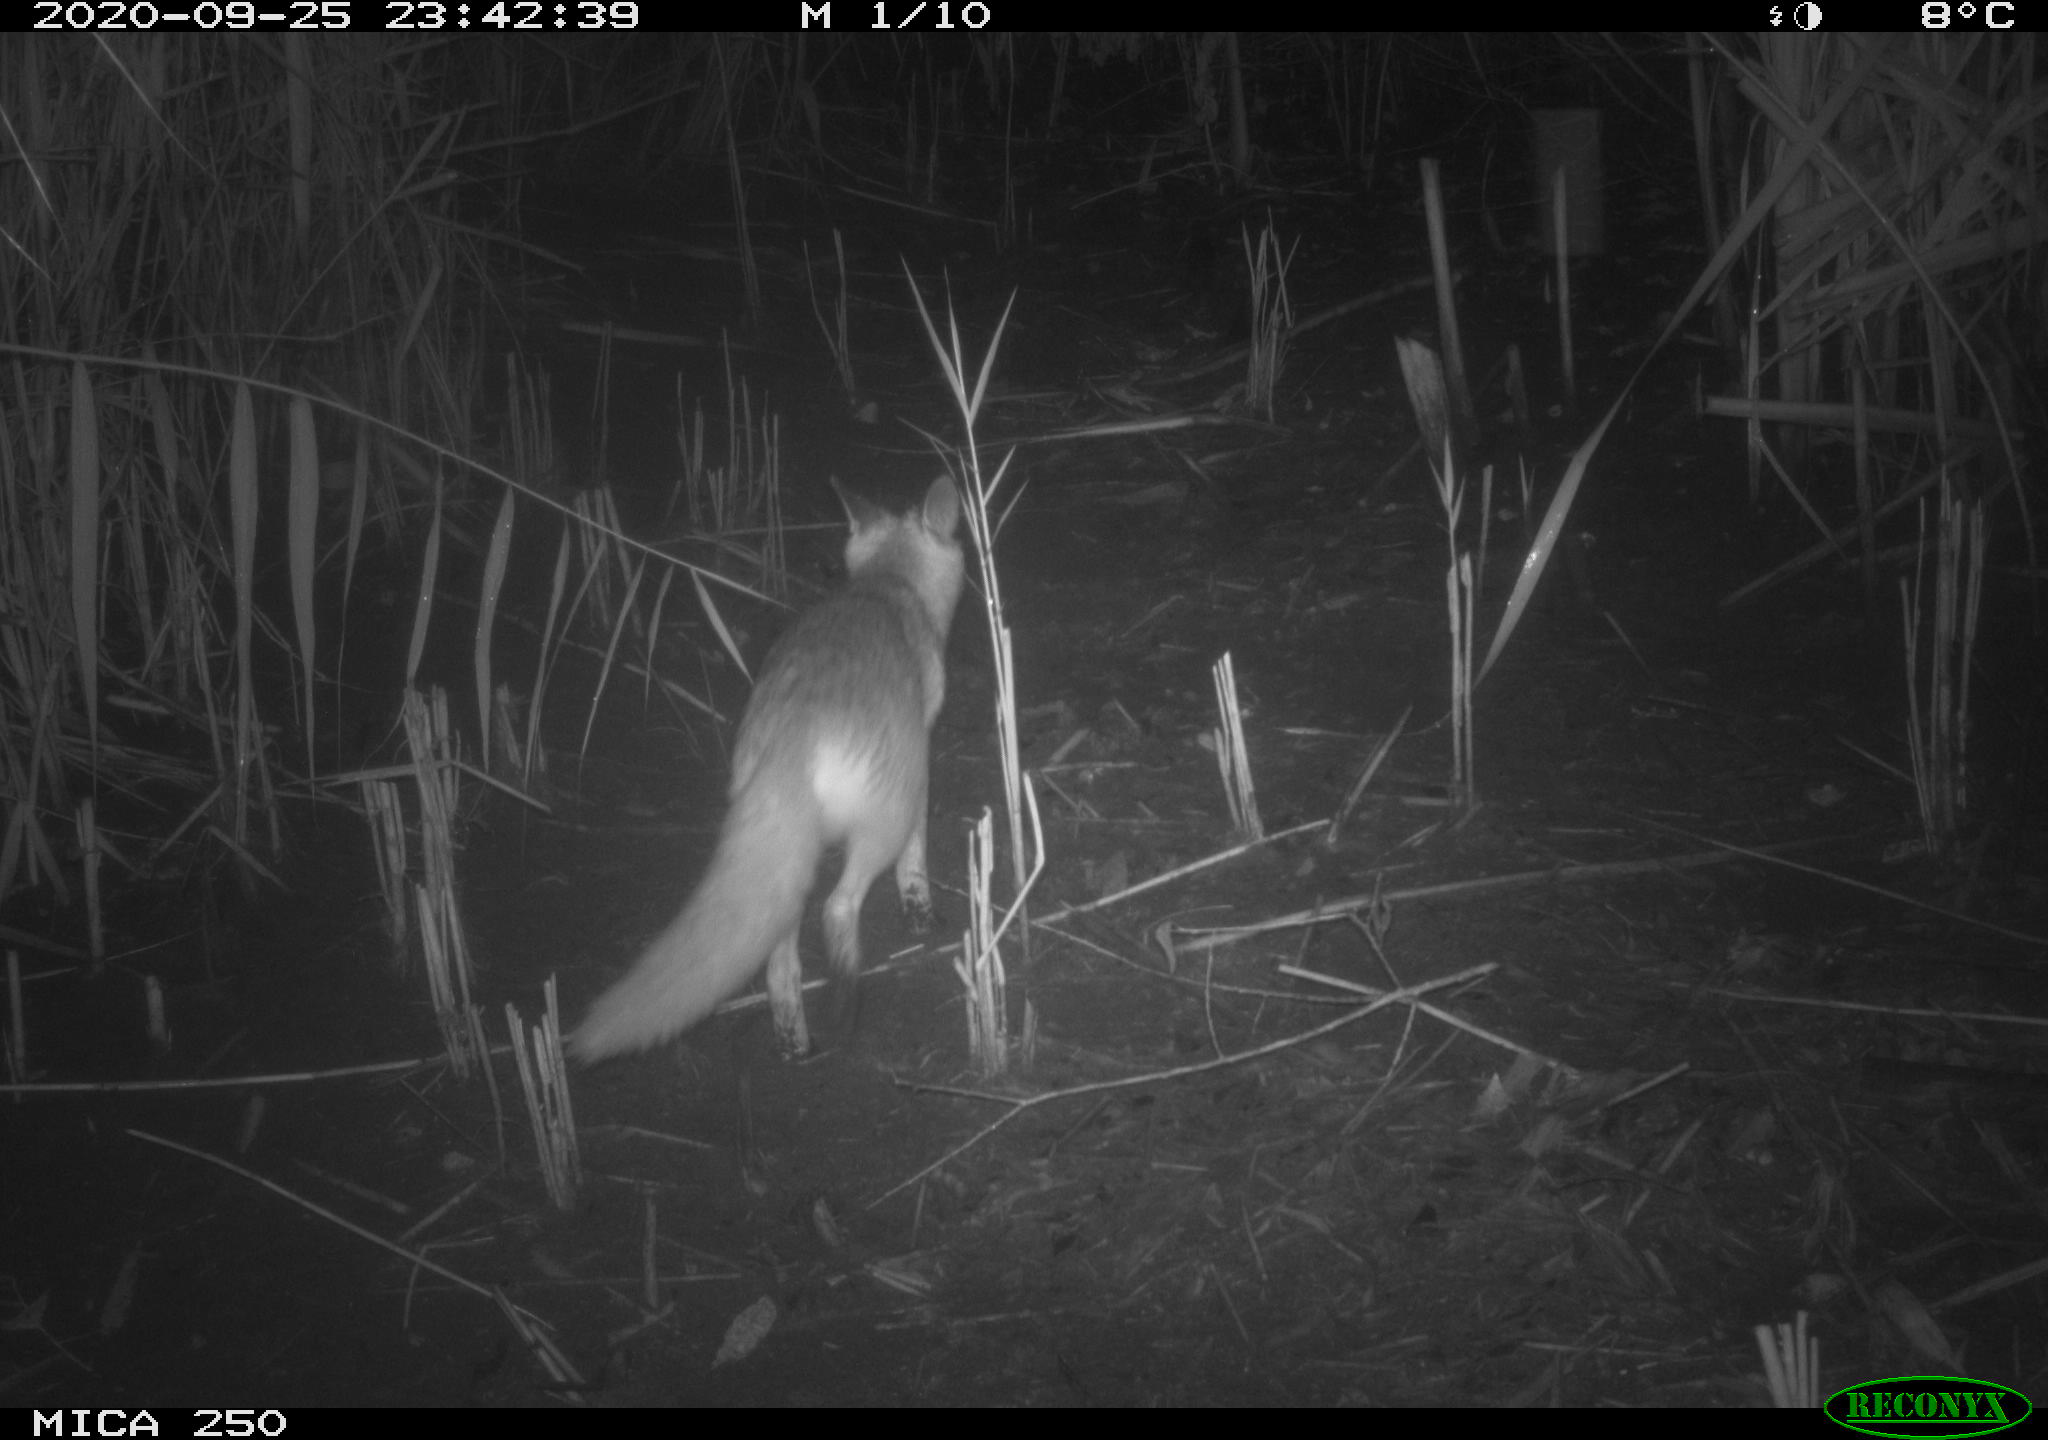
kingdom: Animalia
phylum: Chordata
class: Mammalia
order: Carnivora
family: Canidae
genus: Vulpes
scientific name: Vulpes vulpes
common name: Red fox
